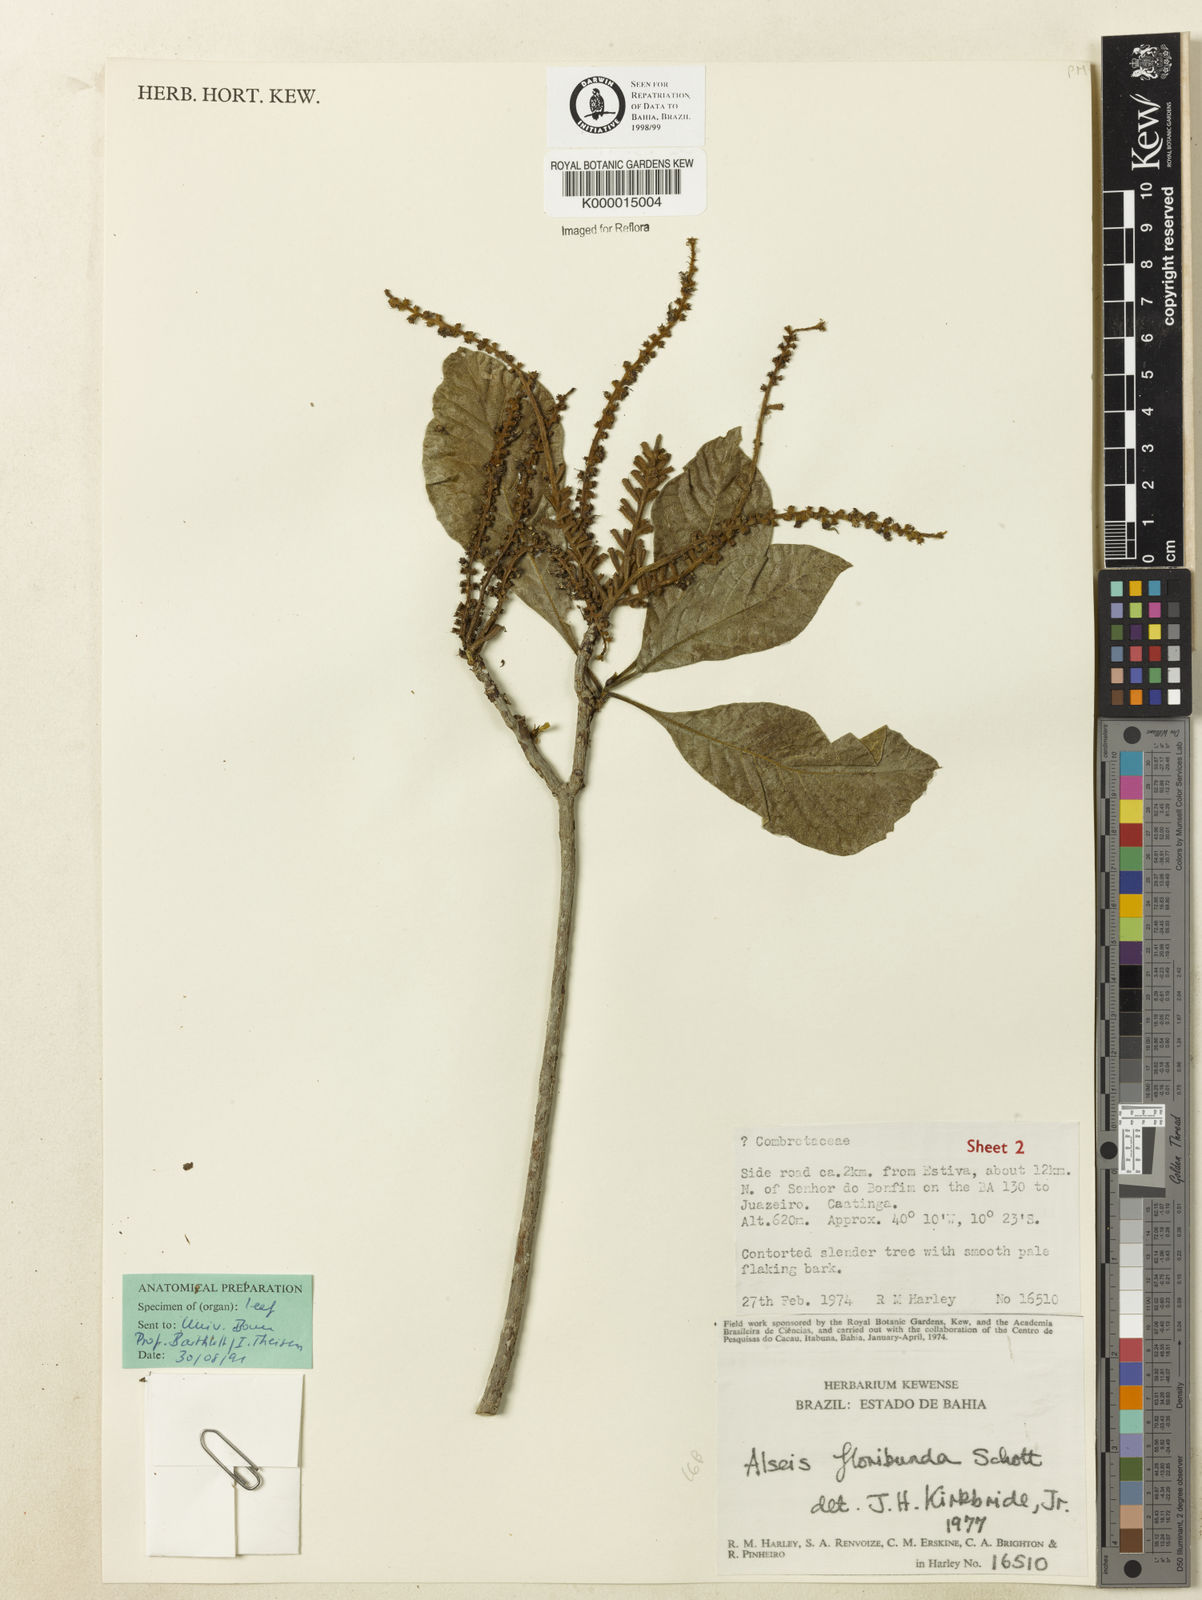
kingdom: Plantae
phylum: Tracheophyta
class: Magnoliopsida
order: Gentianales
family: Rubiaceae
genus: Alseis
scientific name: Alseis floribunda
